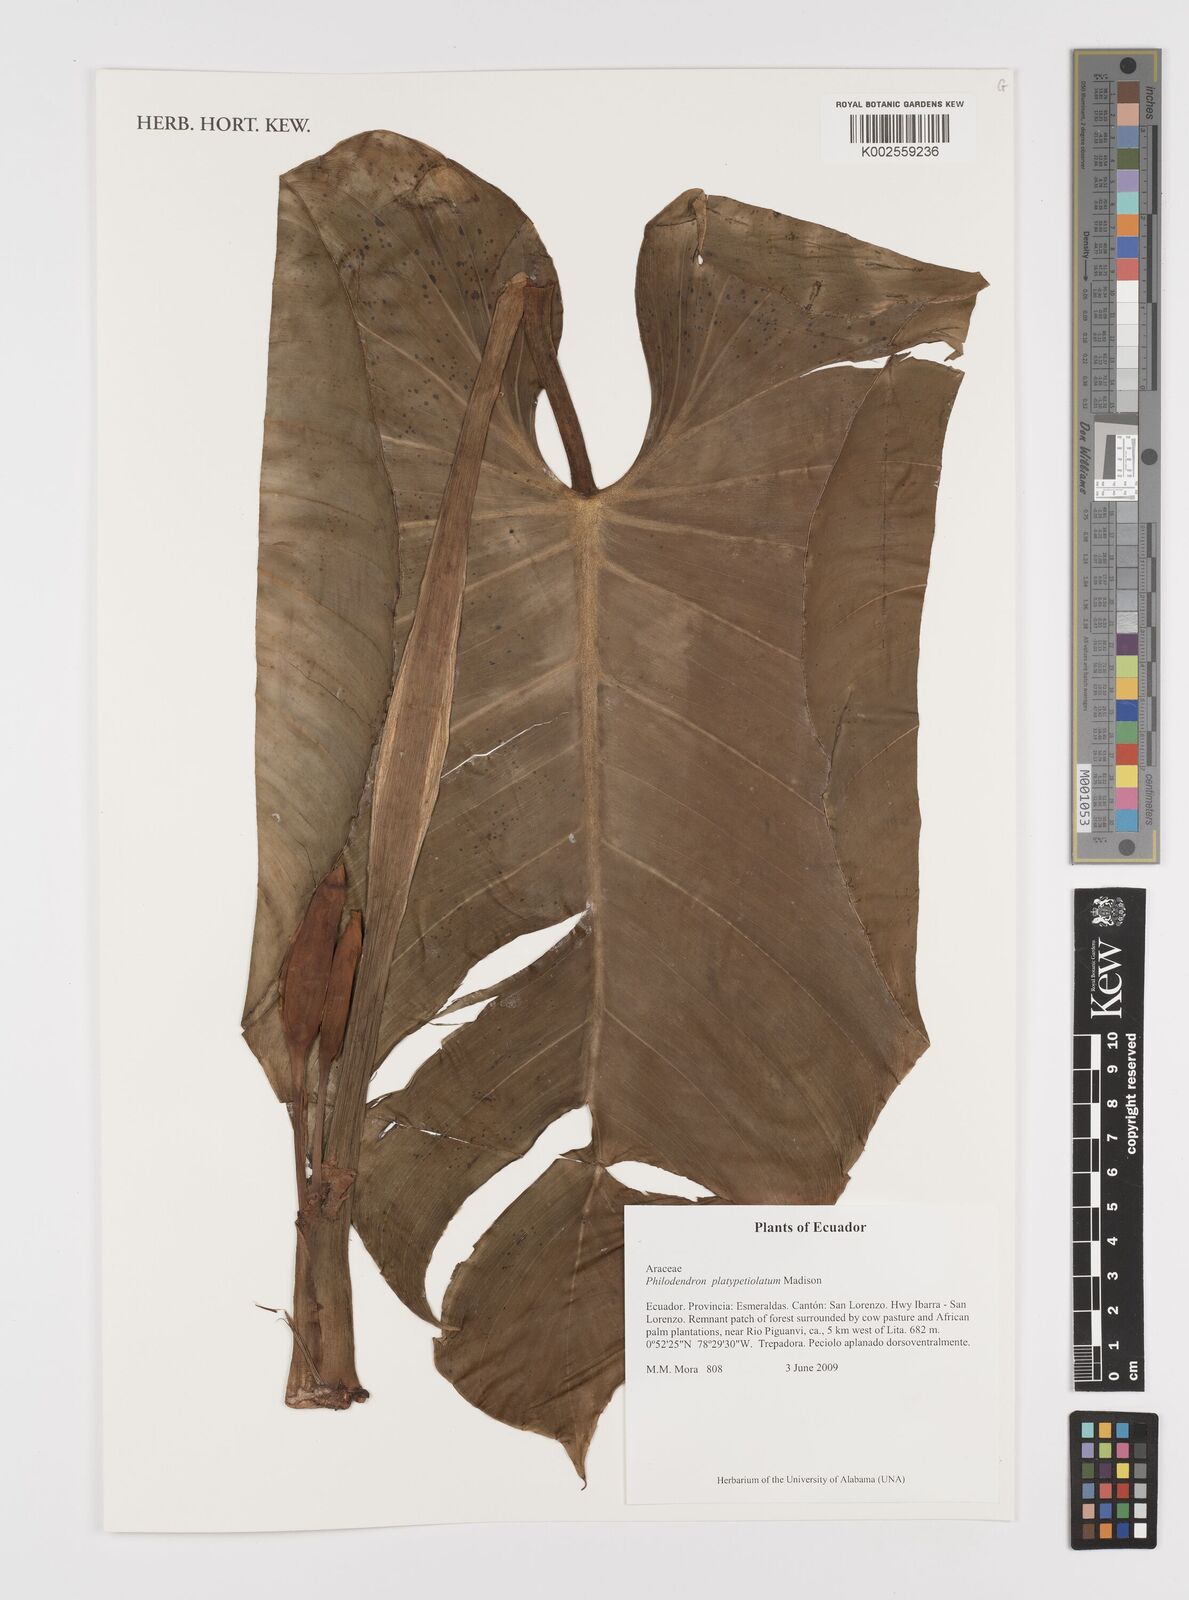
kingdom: Plantae
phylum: Tracheophyta
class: Liliopsida
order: Alismatales
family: Araceae
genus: Philodendron
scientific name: Philodendron platypetiolatum
